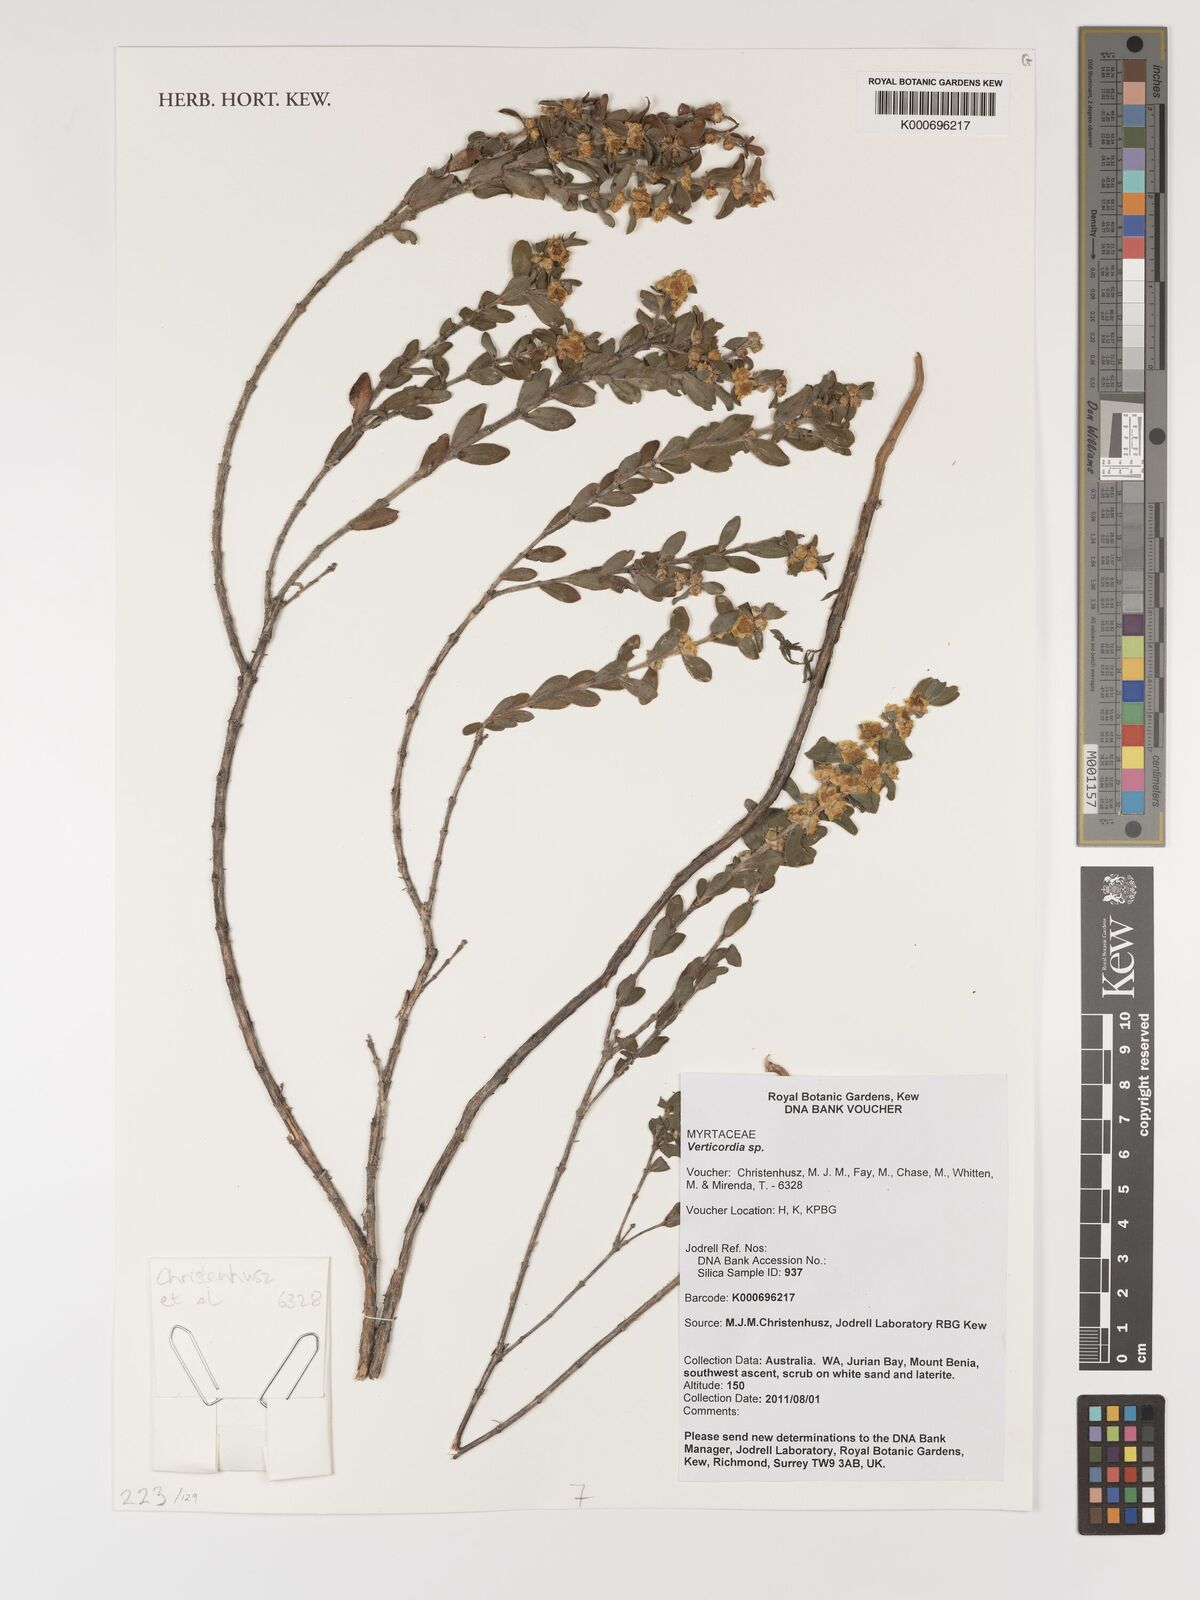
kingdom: Plantae
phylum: Tracheophyta
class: Magnoliopsida
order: Myrtales
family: Myrtaceae
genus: Verticordia
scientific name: Verticordia
